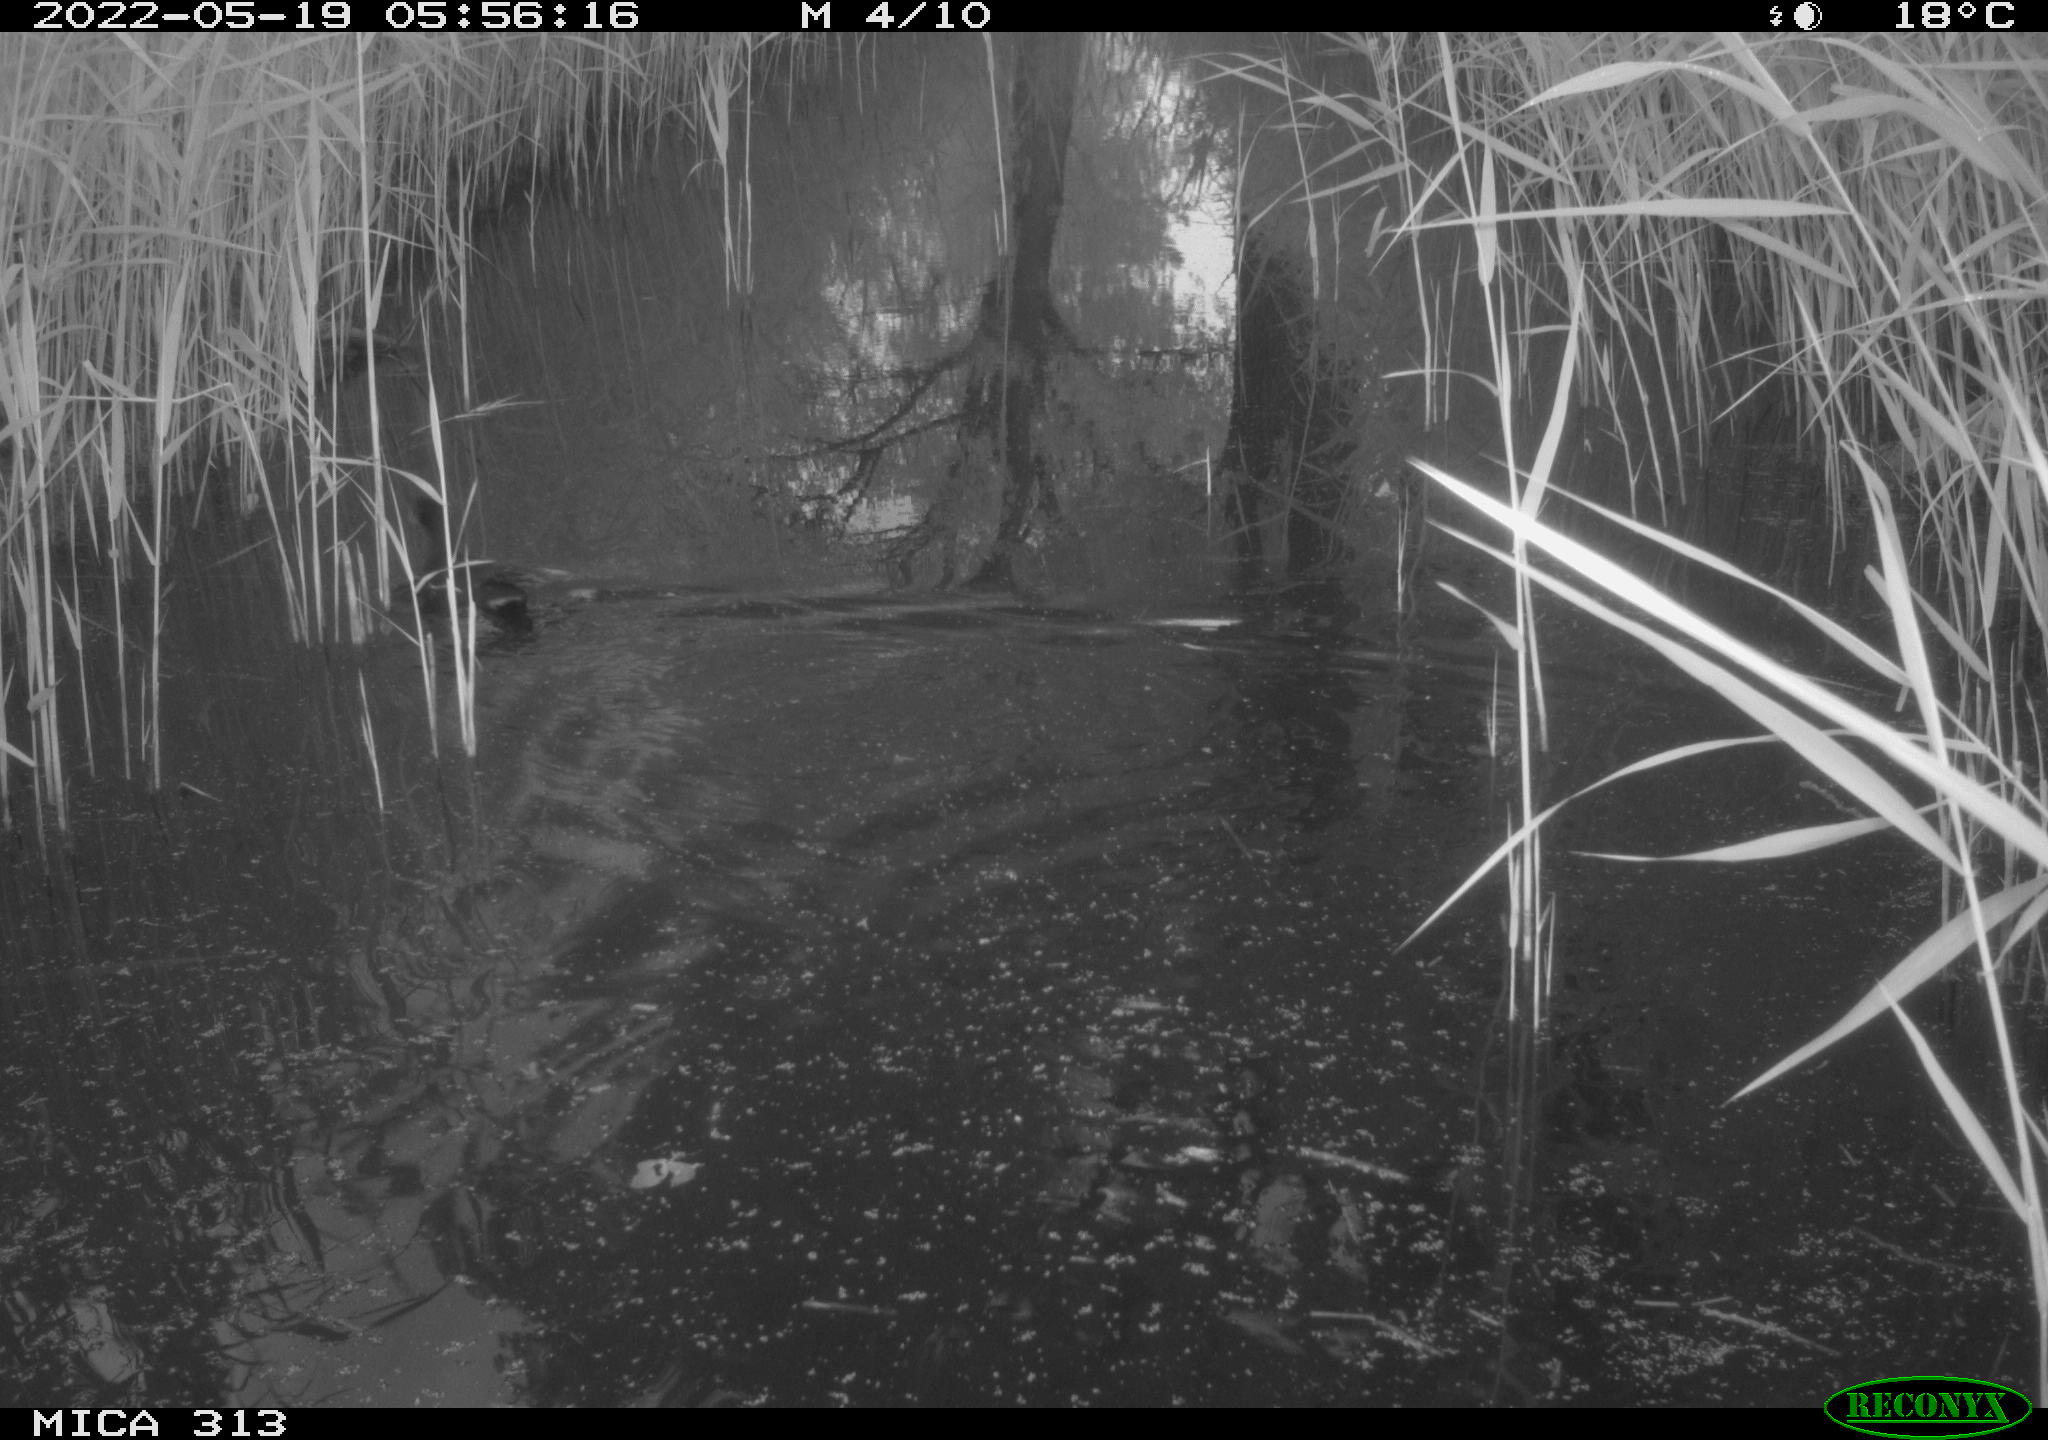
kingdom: Animalia
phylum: Chordata
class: Aves
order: Gruiformes
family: Rallidae
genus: Gallinula
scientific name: Gallinula chloropus
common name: Common moorhen
